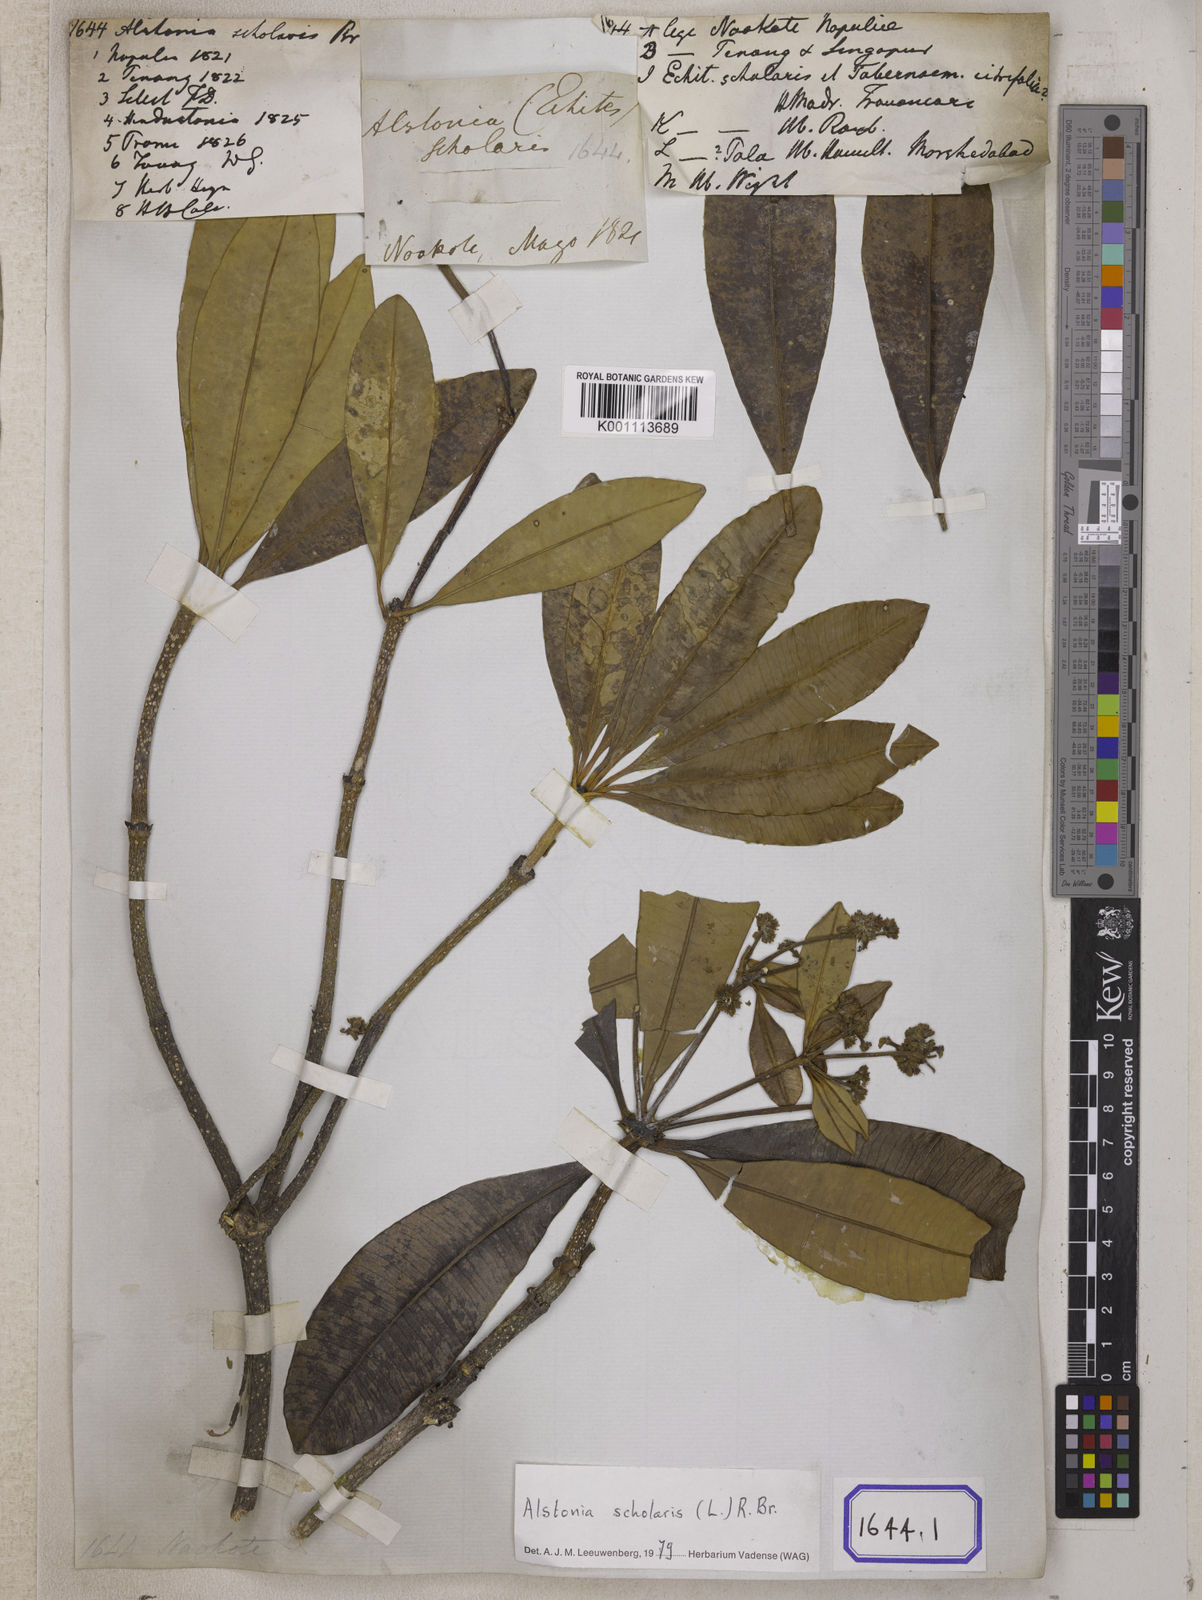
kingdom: Plantae
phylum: Tracheophyta
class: Magnoliopsida
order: Gentianales
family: Apocynaceae
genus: Alstonia
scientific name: Alstonia scholaris
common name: White cheesewood
